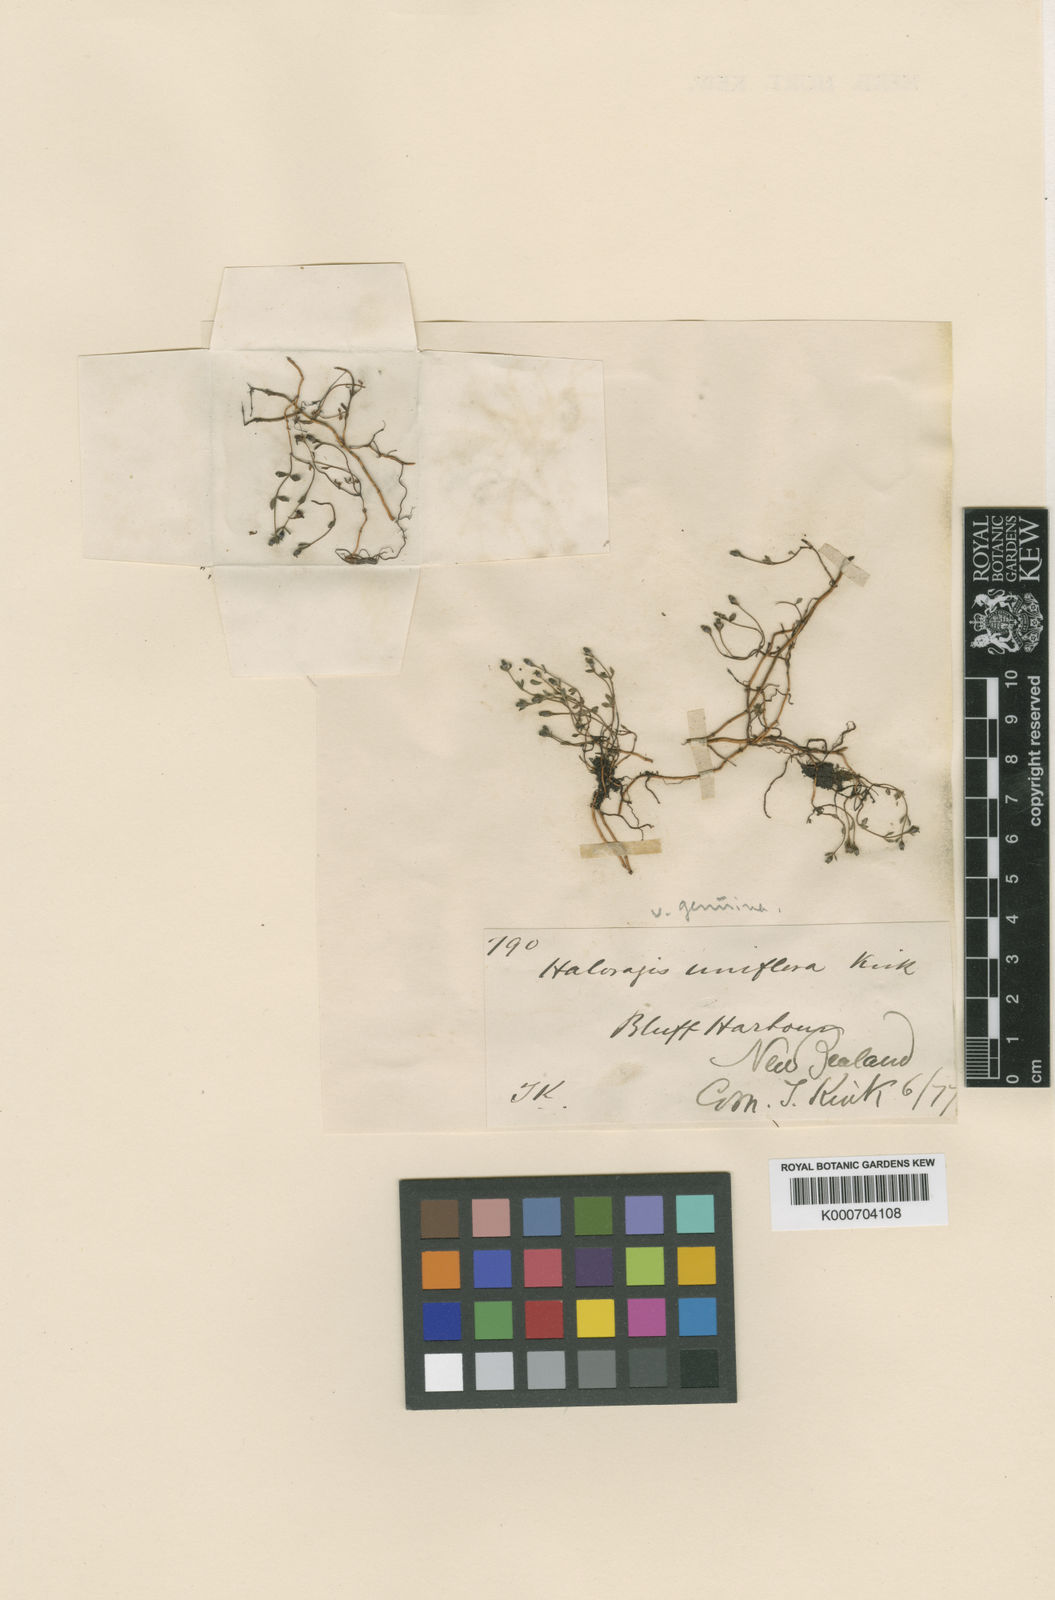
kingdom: Plantae
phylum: Tracheophyta
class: Magnoliopsida
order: Saxifragales
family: Haloragaceae
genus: Gonocarpus
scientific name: Gonocarpus aggregatus
